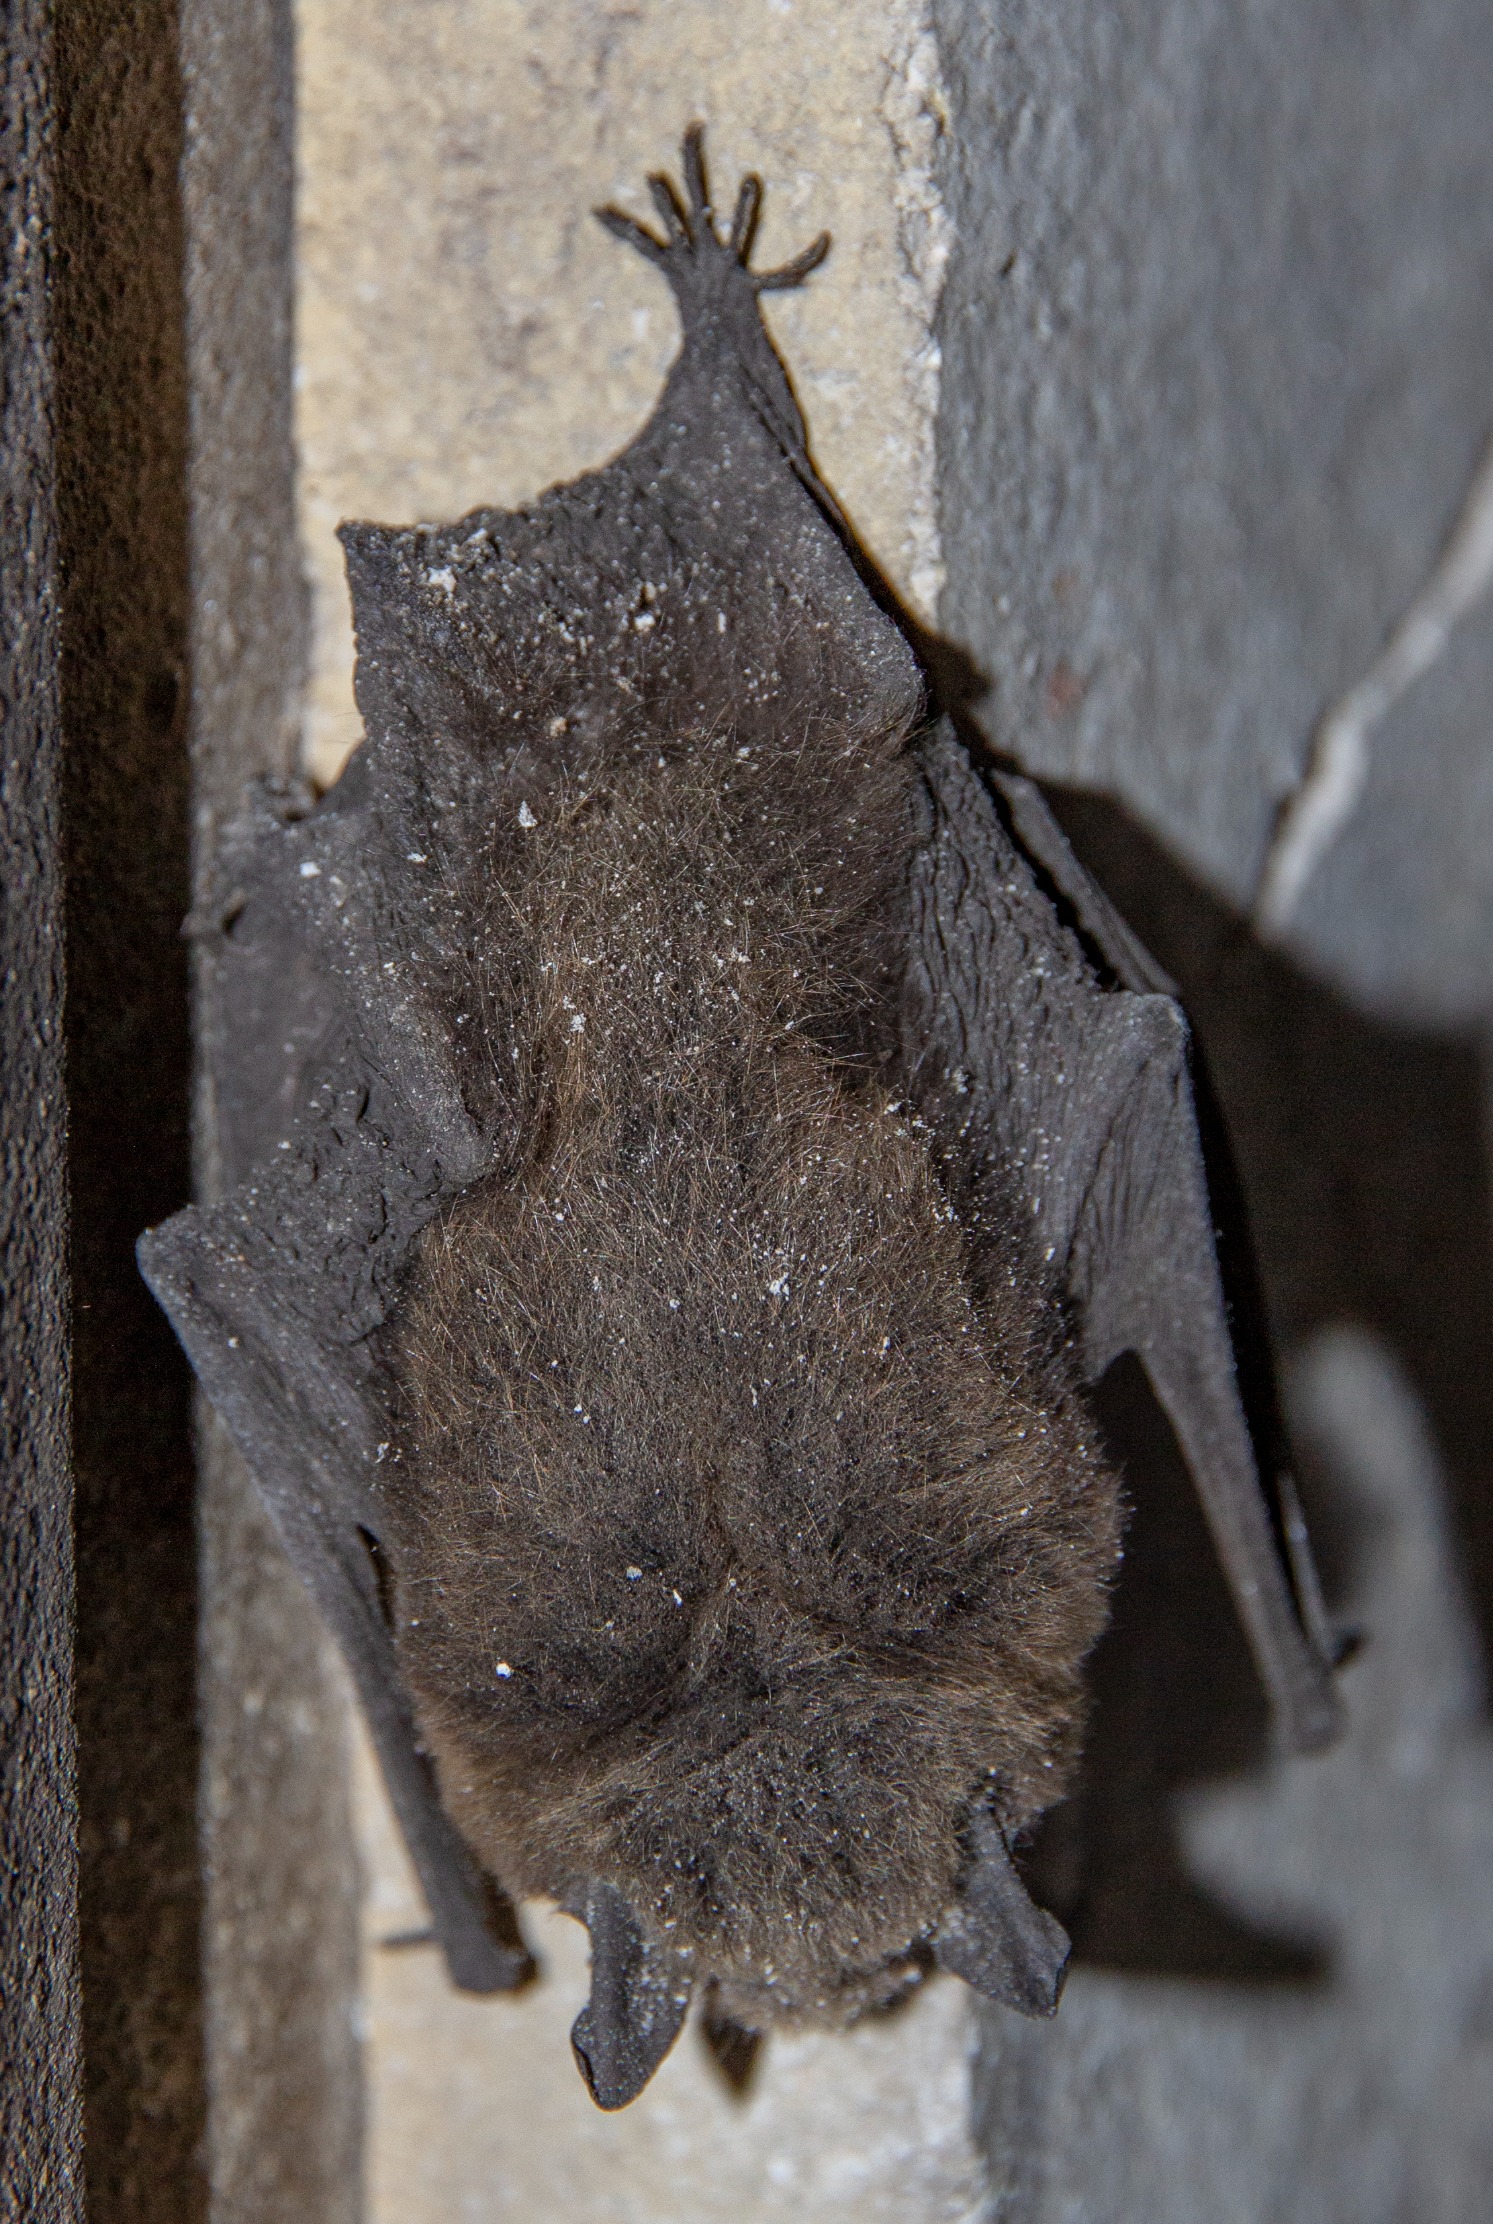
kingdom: Animalia
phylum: Chordata
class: Mammalia
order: Chiroptera
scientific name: Chiroptera
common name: Flagermus
